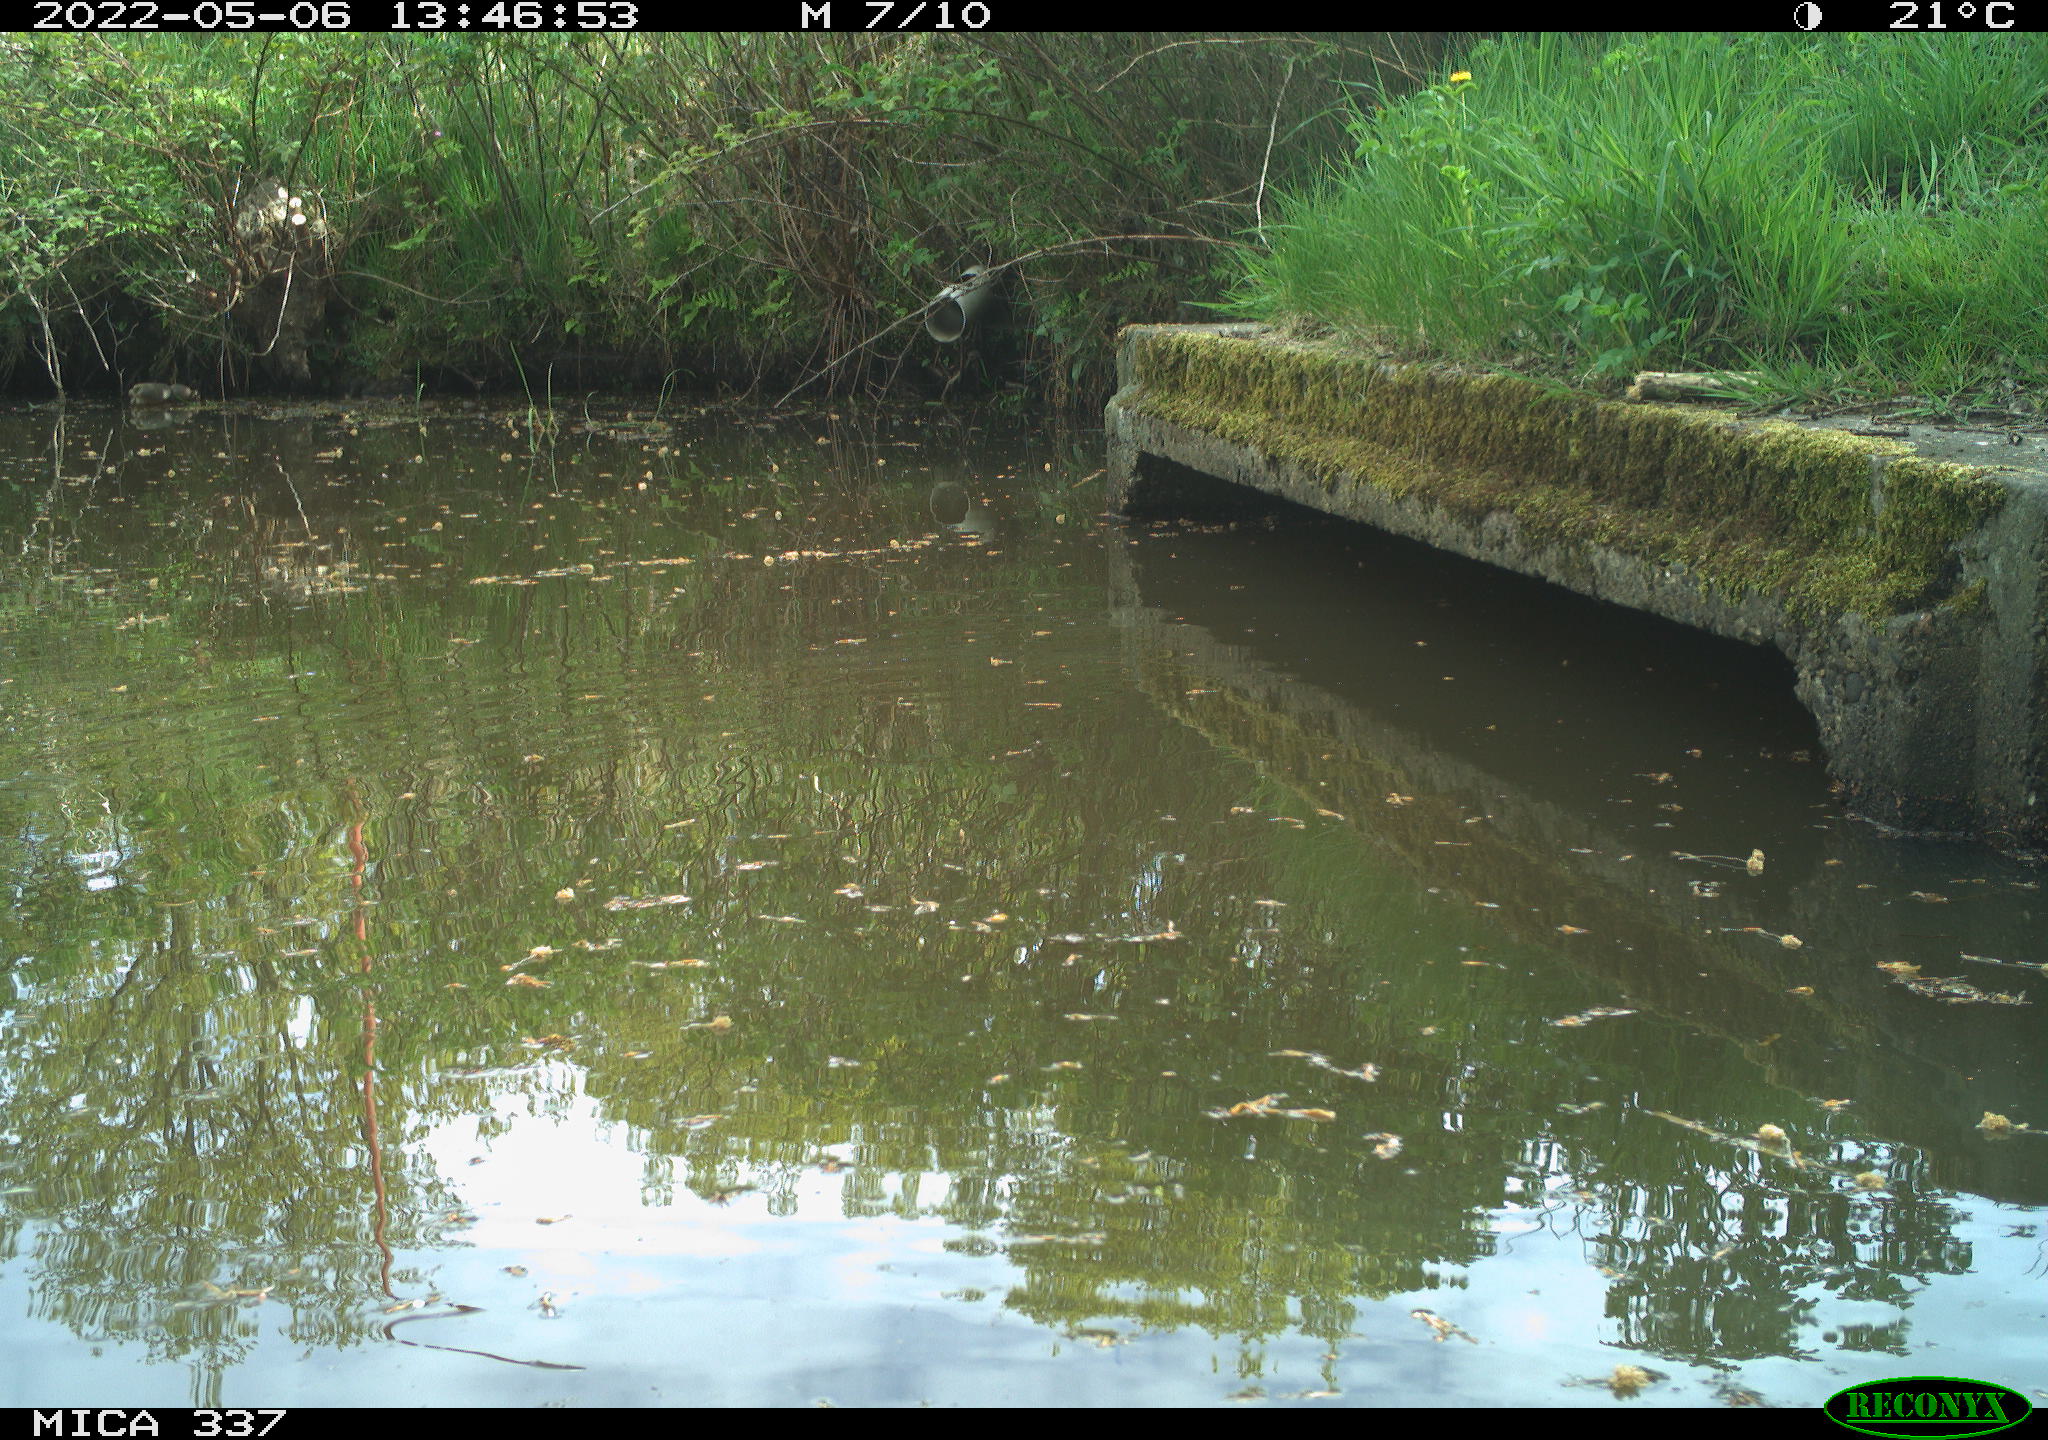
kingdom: Animalia
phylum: Chordata
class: Aves
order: Gruiformes
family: Rallidae
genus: Gallinula
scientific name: Gallinula chloropus
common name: Common moorhen
